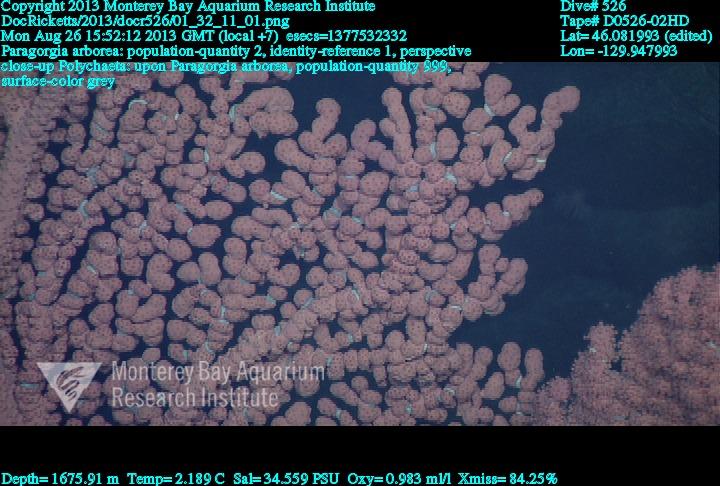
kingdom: Animalia
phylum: Cnidaria
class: Anthozoa
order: Scleralcyonacea
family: Coralliidae
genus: Paragorgia
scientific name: Paragorgia arborea
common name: Bubble gum coral
